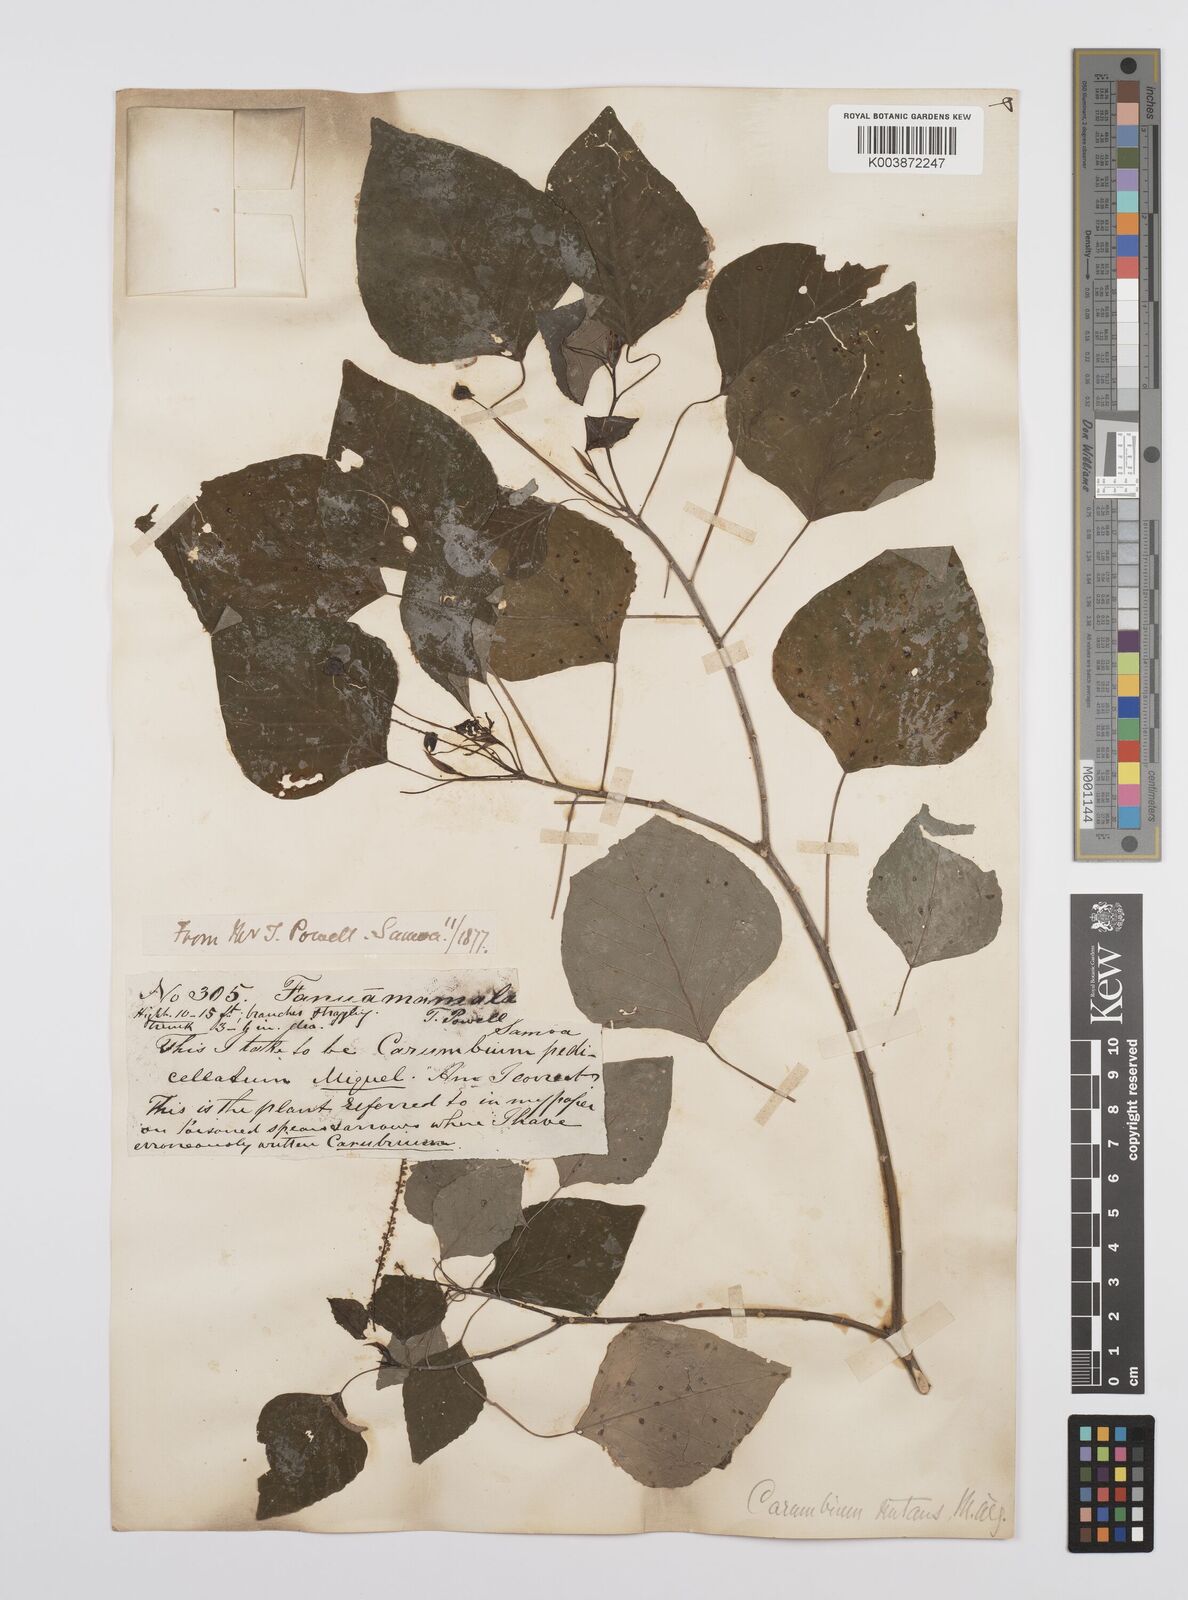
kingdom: Plantae
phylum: Tracheophyta
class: Magnoliopsida
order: Malpighiales
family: Euphorbiaceae
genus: Homalanthus
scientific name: Homalanthus nutans
